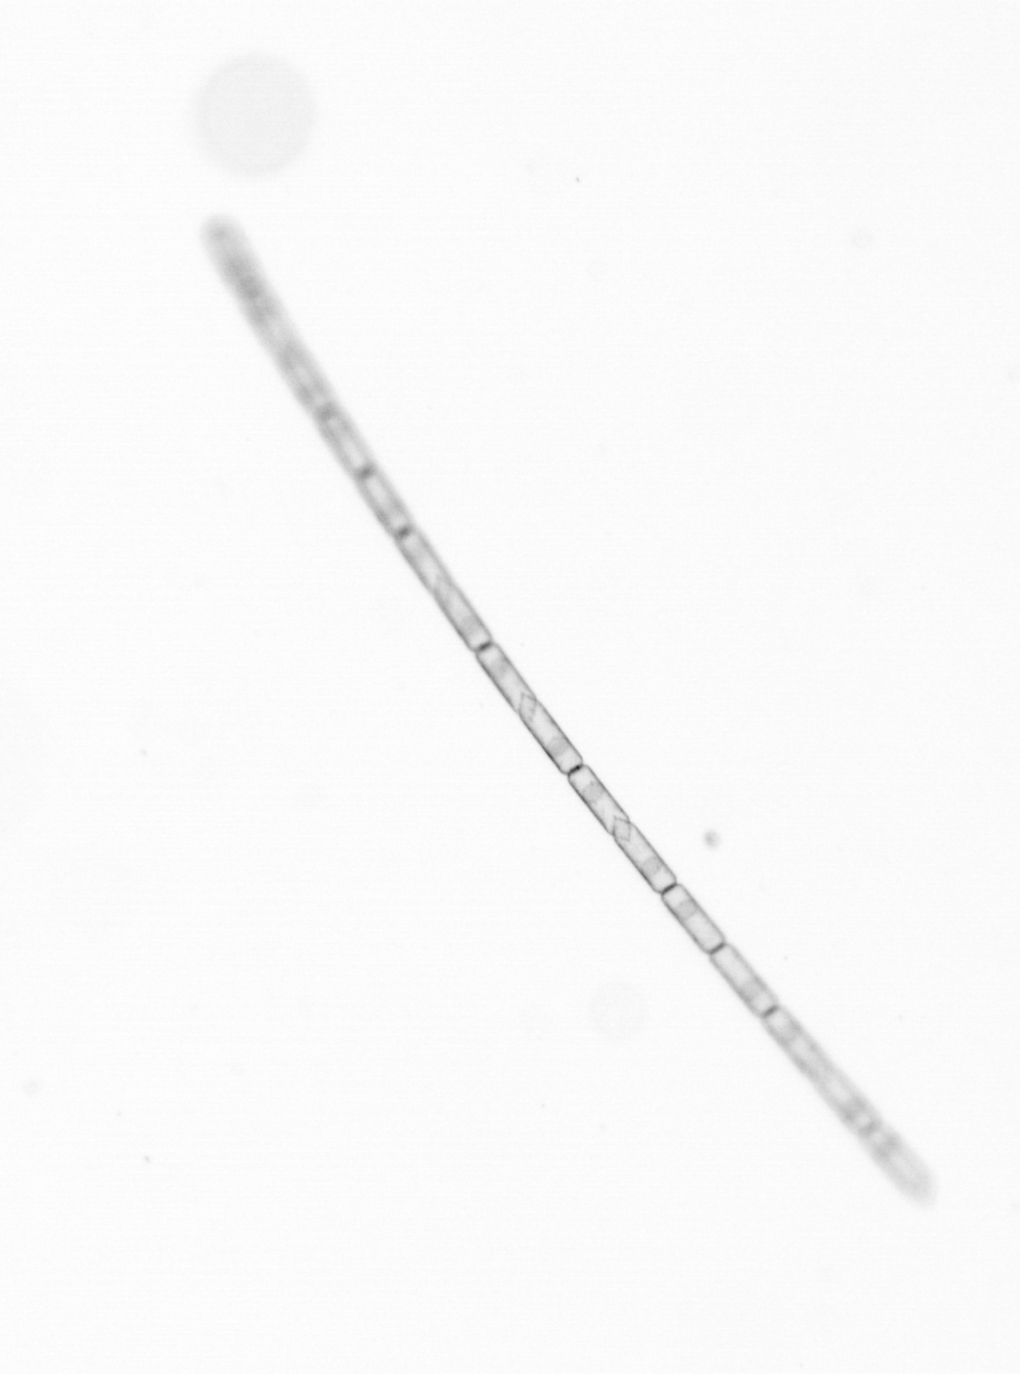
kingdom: Chromista
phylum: Ochrophyta
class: Bacillariophyceae
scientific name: Bacillariophyceae
